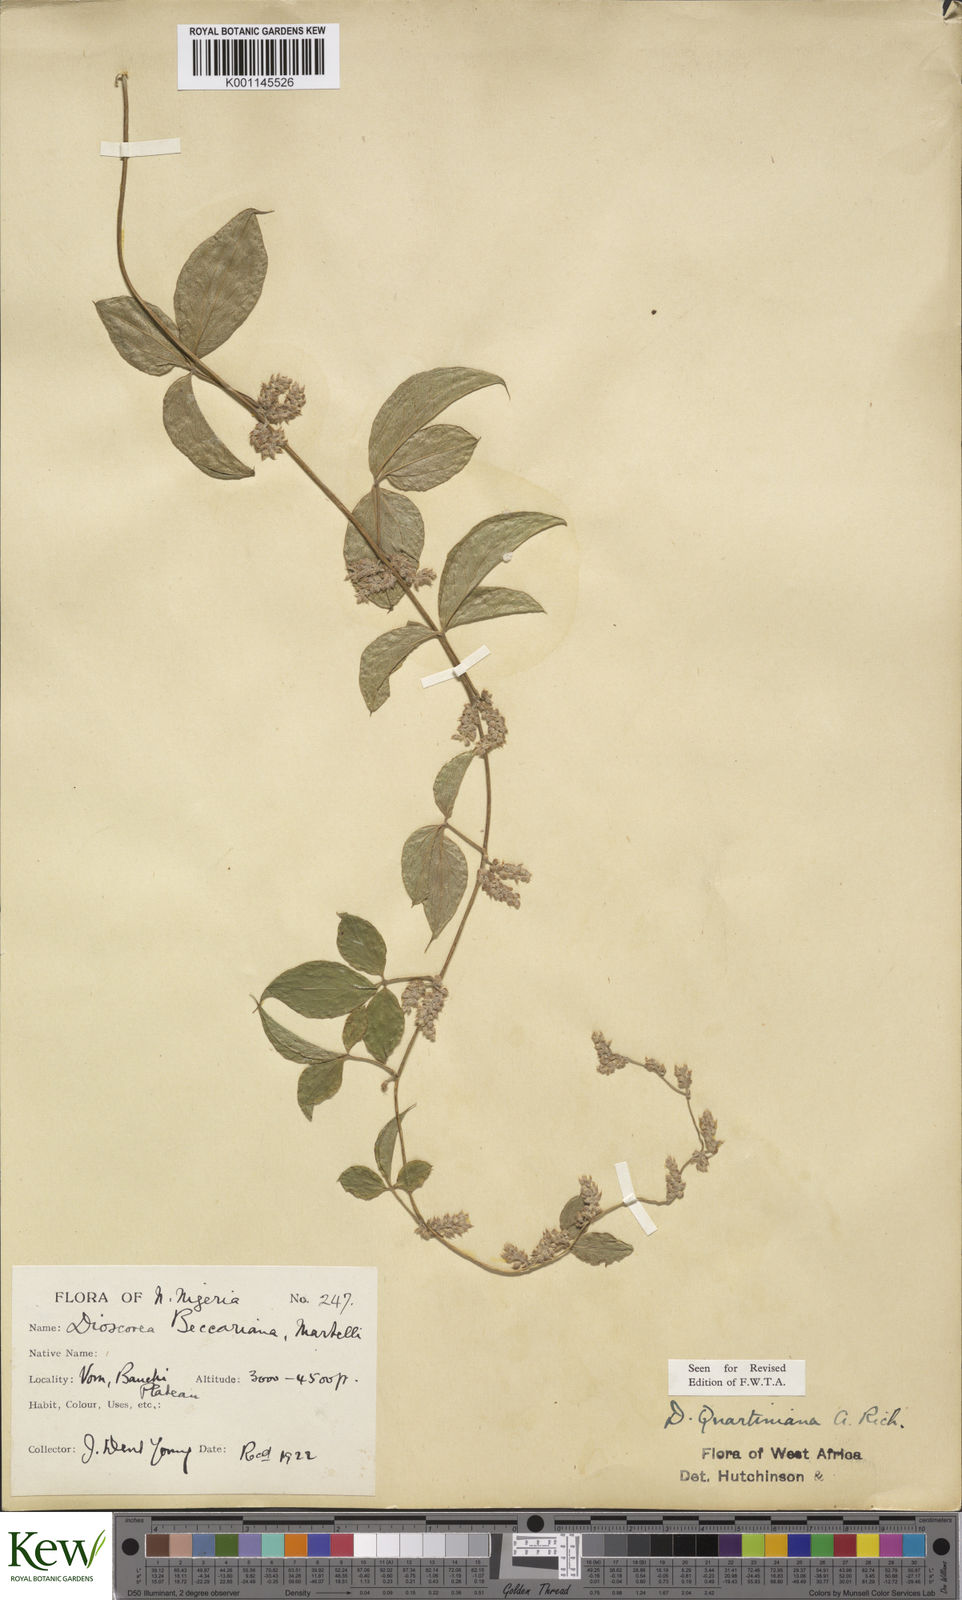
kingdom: Plantae
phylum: Tracheophyta
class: Liliopsida
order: Dioscoreales
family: Dioscoreaceae
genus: Dioscorea
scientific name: Dioscorea quartiniana
